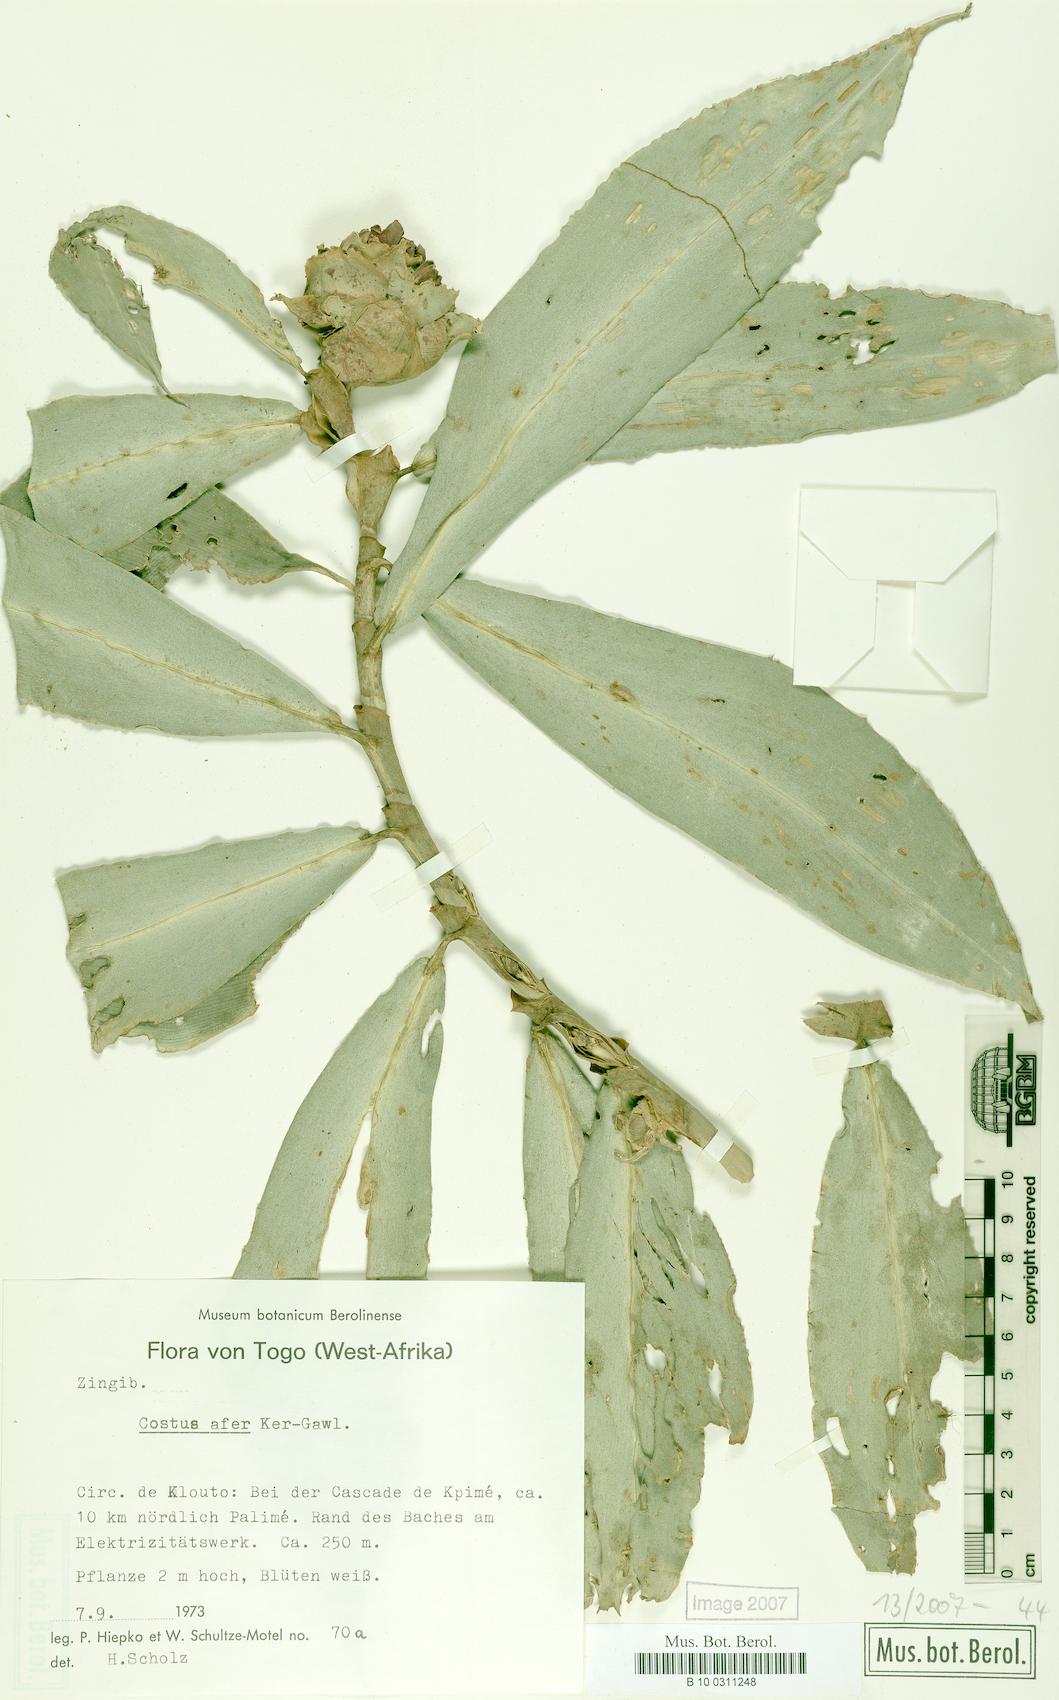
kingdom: Plantae
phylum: Tracheophyta
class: Liliopsida
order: Zingiberales
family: Costaceae
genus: Costus
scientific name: Costus afer
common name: Spiral-ginger
